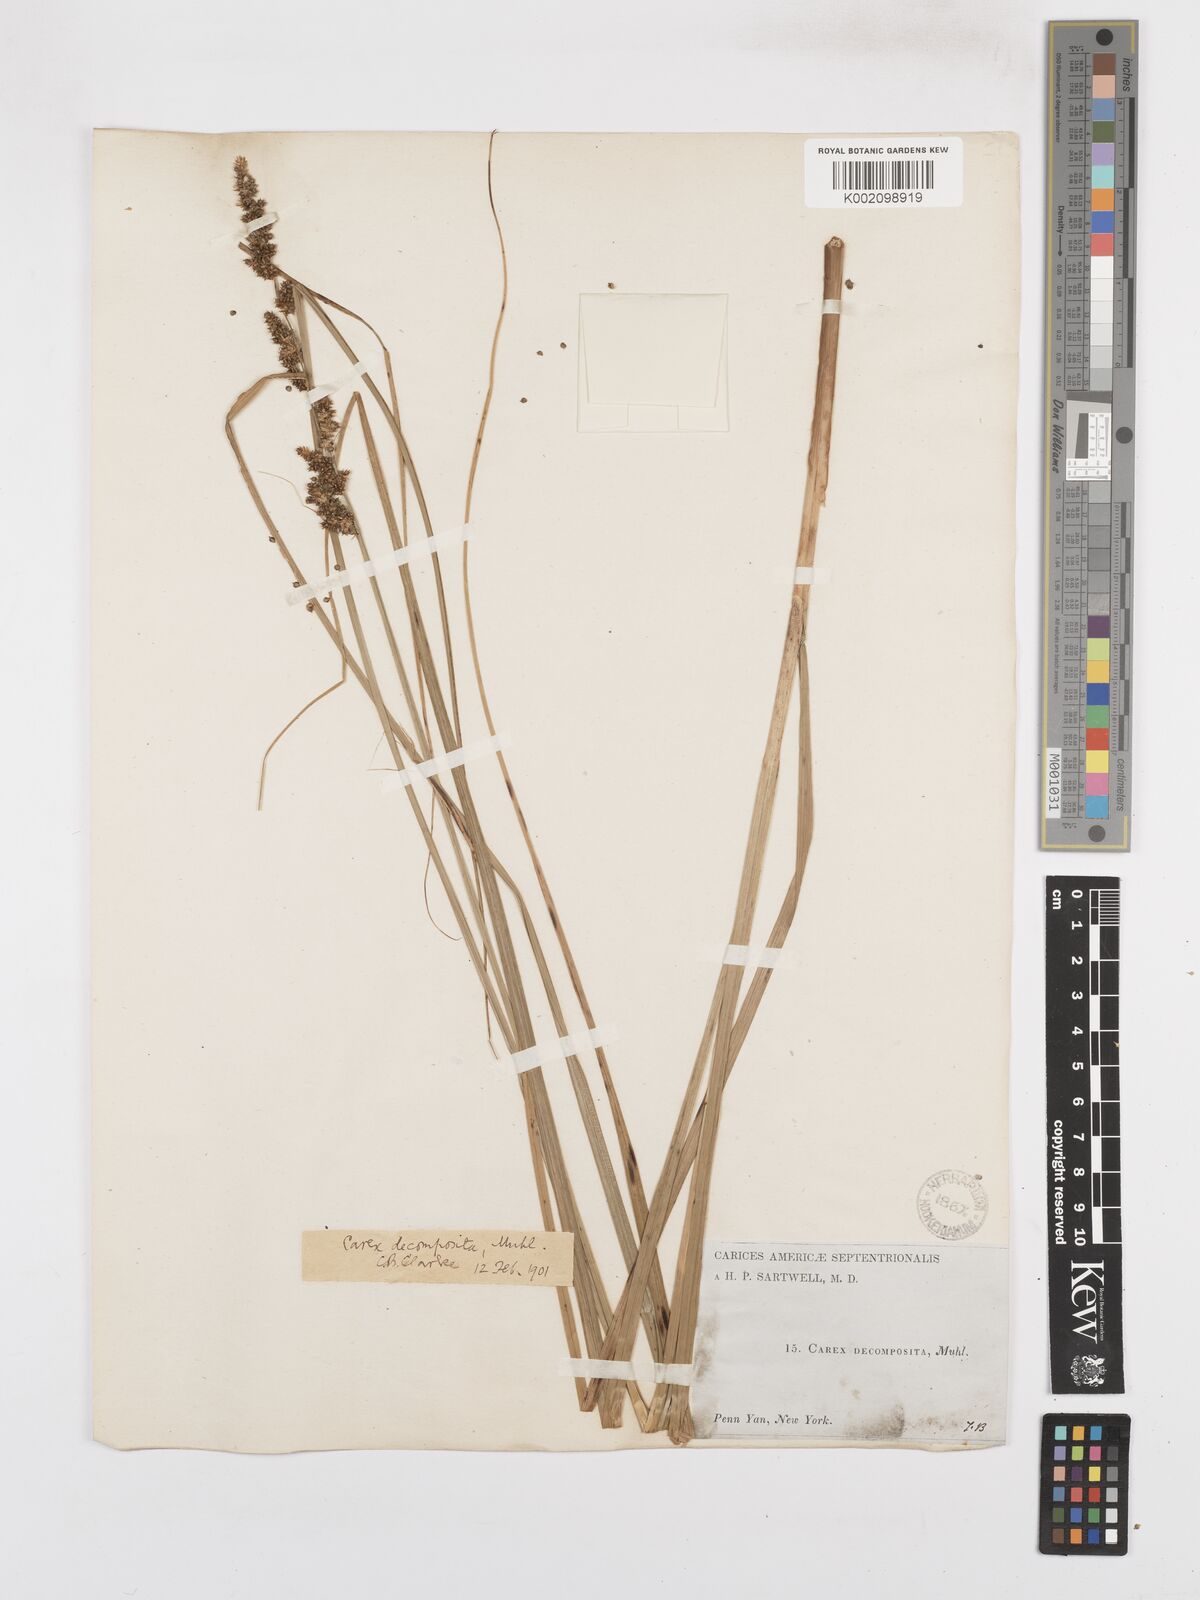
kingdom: Plantae
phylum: Tracheophyta
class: Liliopsida
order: Poales
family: Cyperaceae
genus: Carex
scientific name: Carex decomposita
